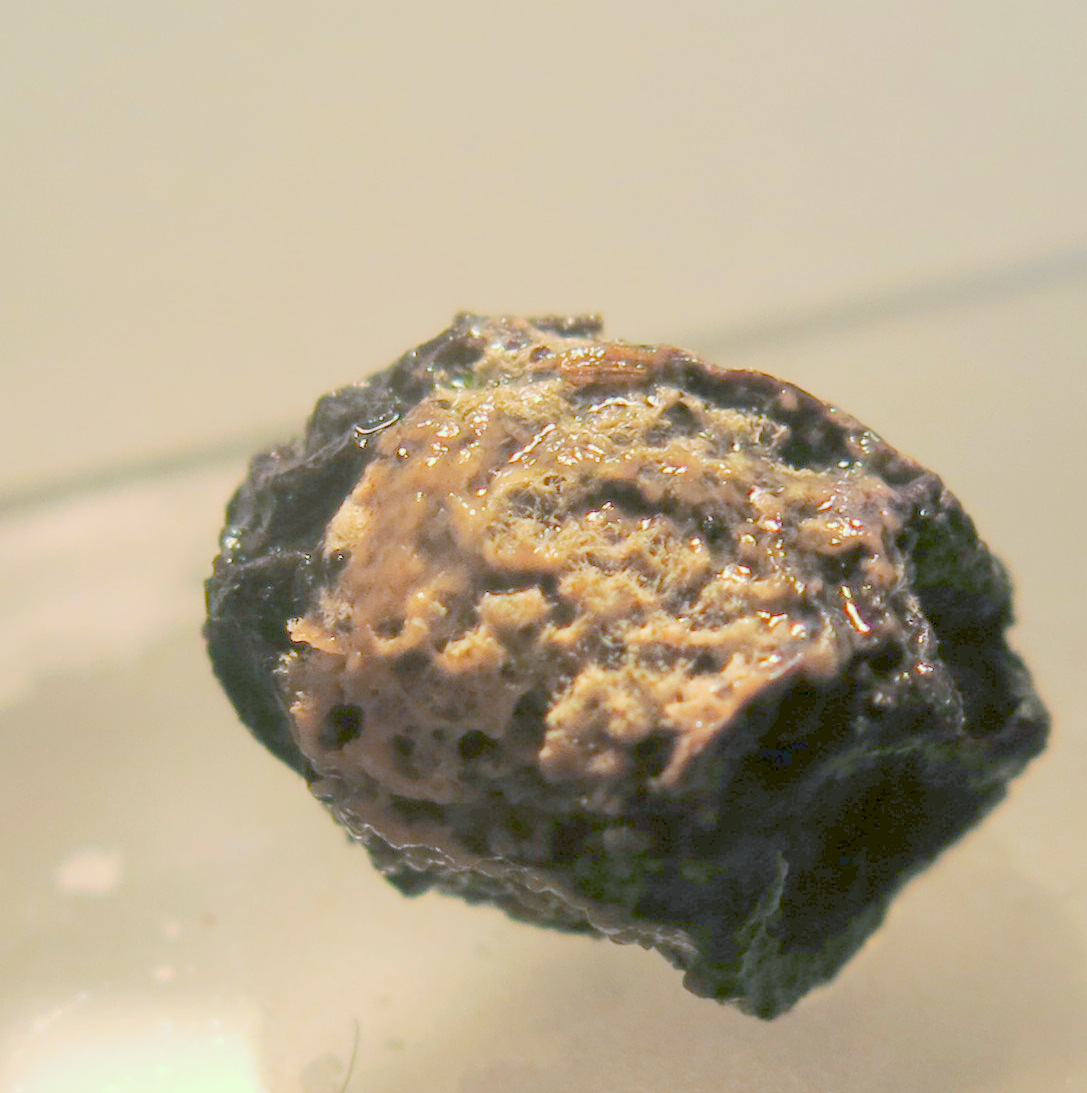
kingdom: Fungi
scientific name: Fungi
